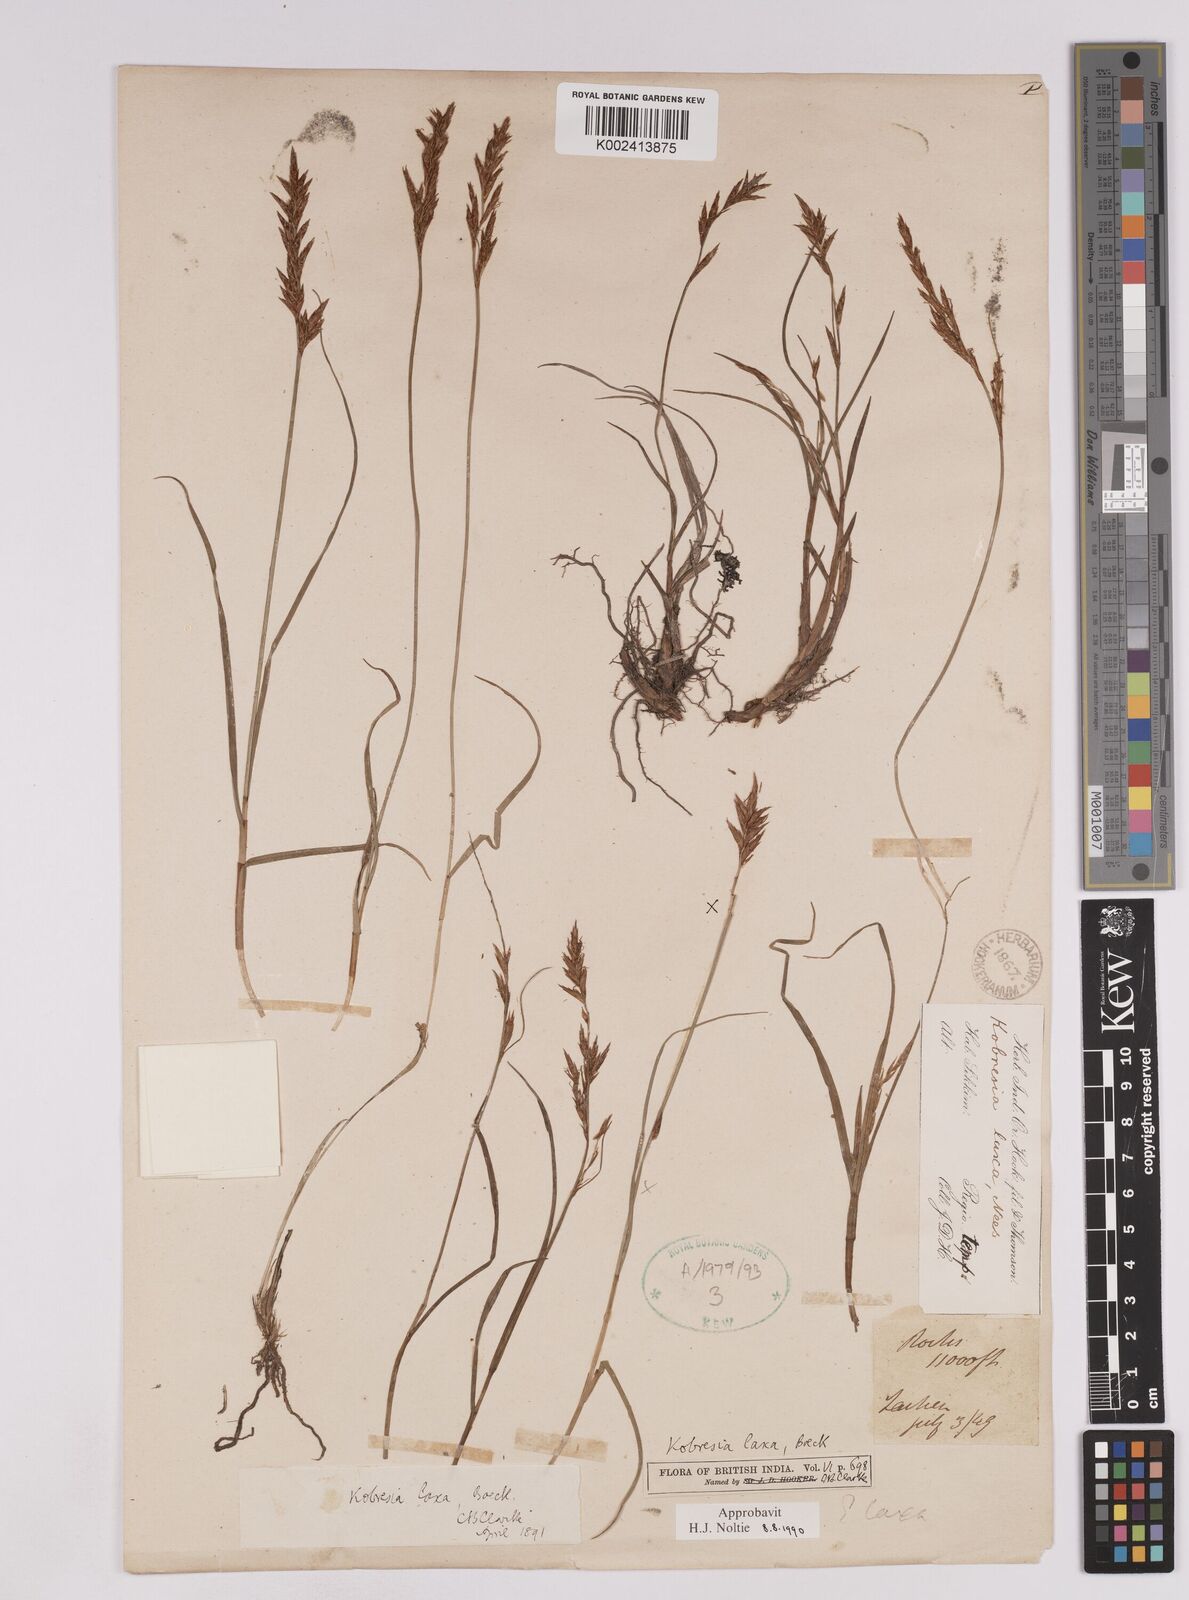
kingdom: Plantae
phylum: Tracheophyta
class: Liliopsida
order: Poales
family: Cyperaceae
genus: Carex
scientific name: Carex pseudolaxa
